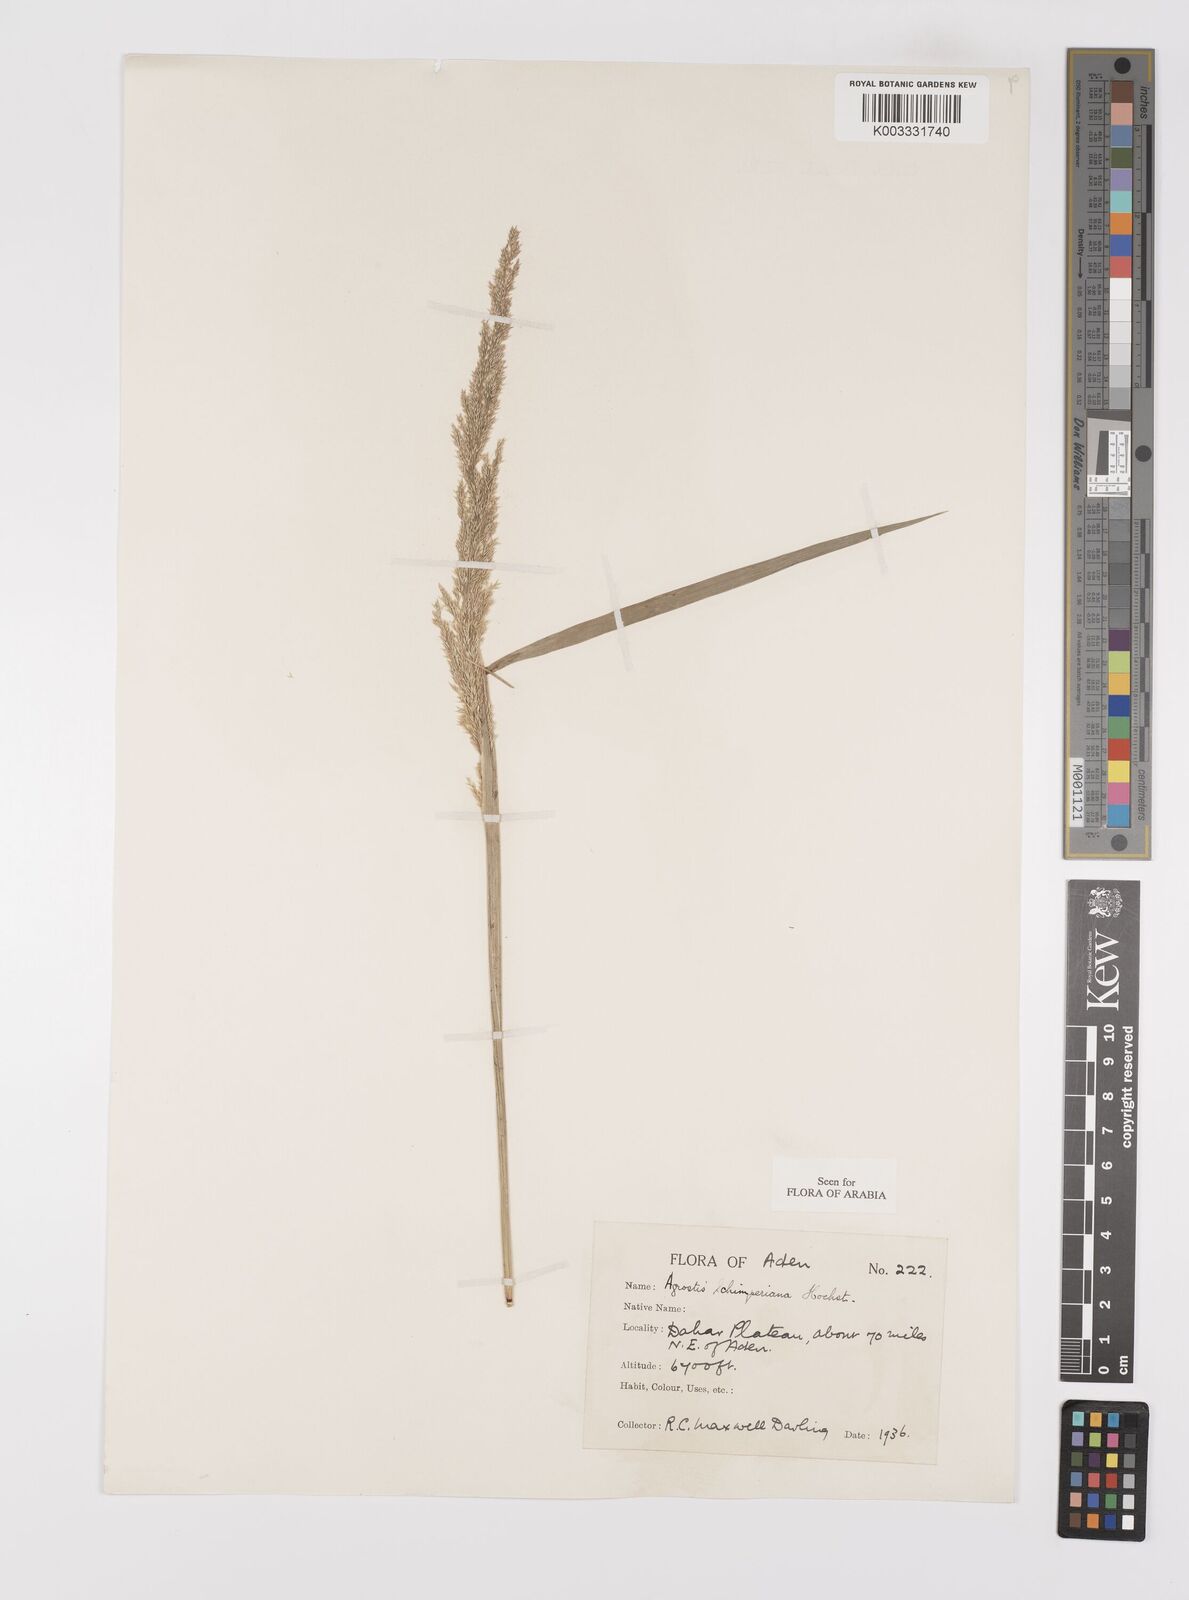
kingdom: Plantae
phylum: Tracheophyta
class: Liliopsida
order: Poales
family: Poaceae
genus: Polypogon
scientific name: Polypogon schimperianus
